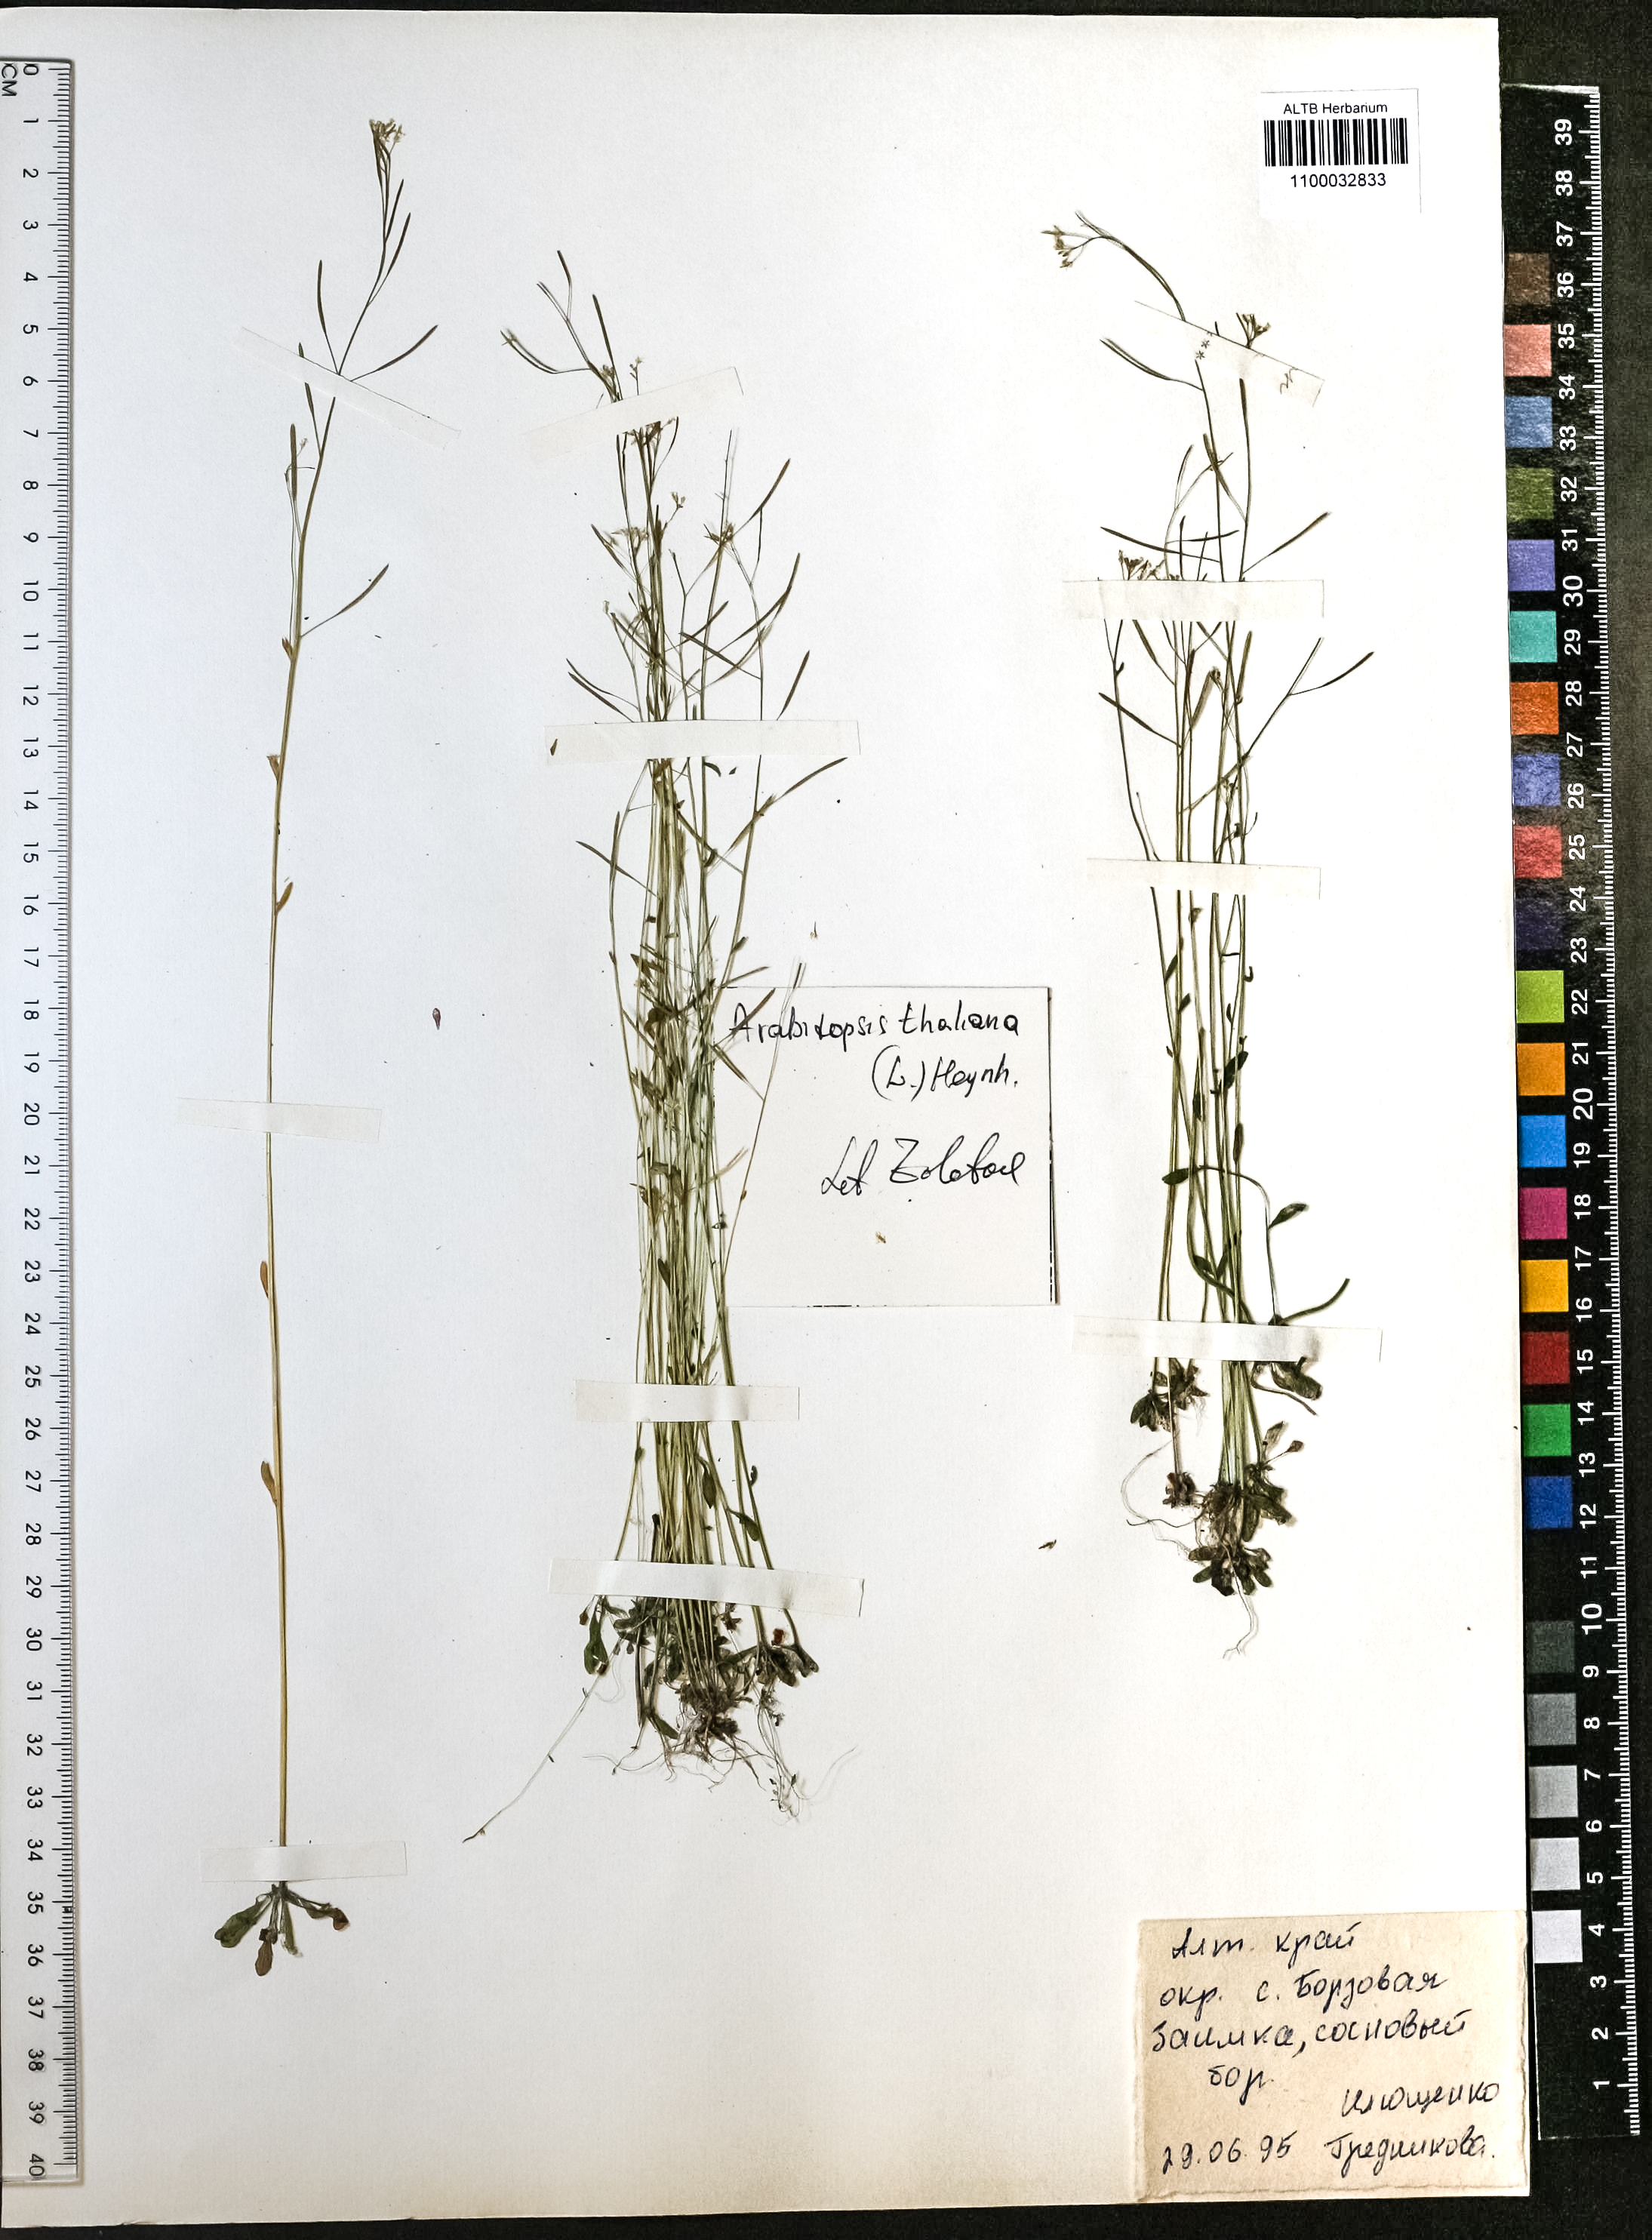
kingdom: Plantae
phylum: Tracheophyta
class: Magnoliopsida
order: Brassicales
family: Brassicaceae
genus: Arabidopsis
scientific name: Arabidopsis thaliana
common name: Thale cress
